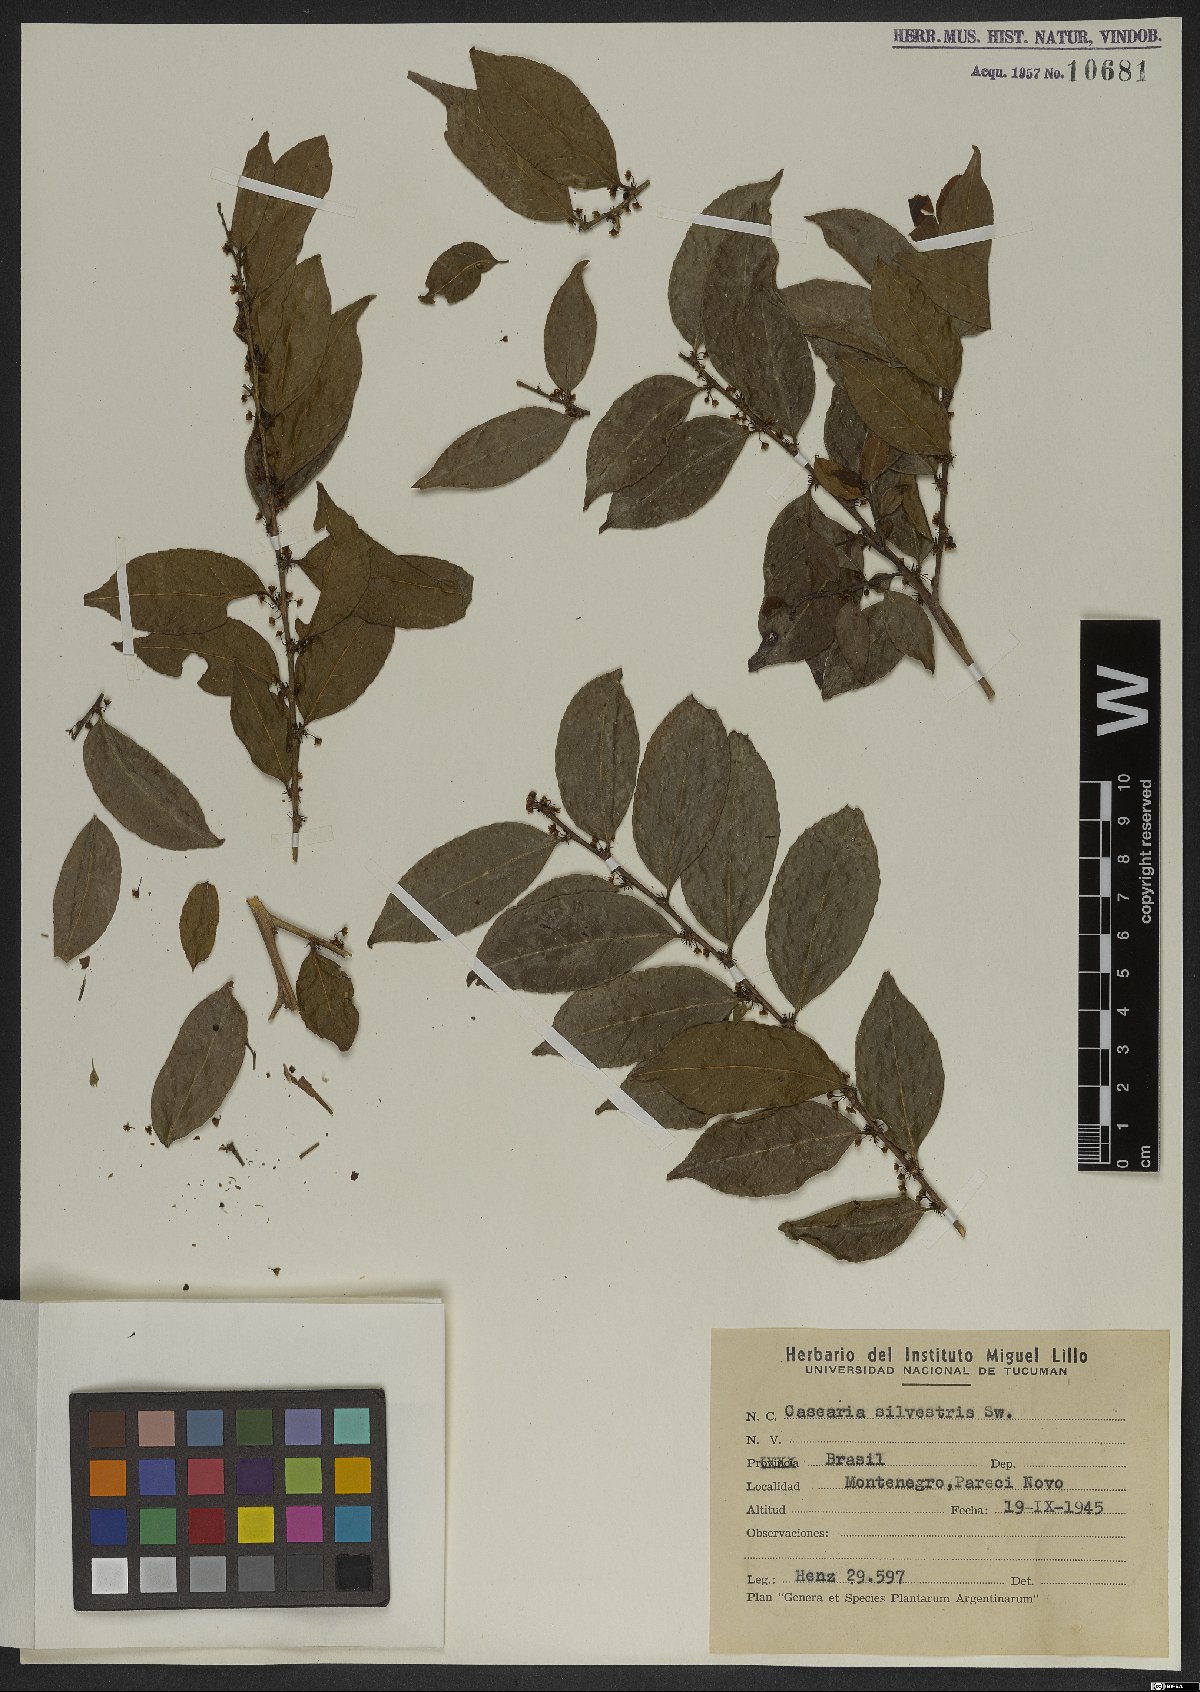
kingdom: Plantae
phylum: Tracheophyta
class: Magnoliopsida
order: Malpighiales
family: Salicaceae
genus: Casearia
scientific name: Casearia sylvestris
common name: Wild sage
